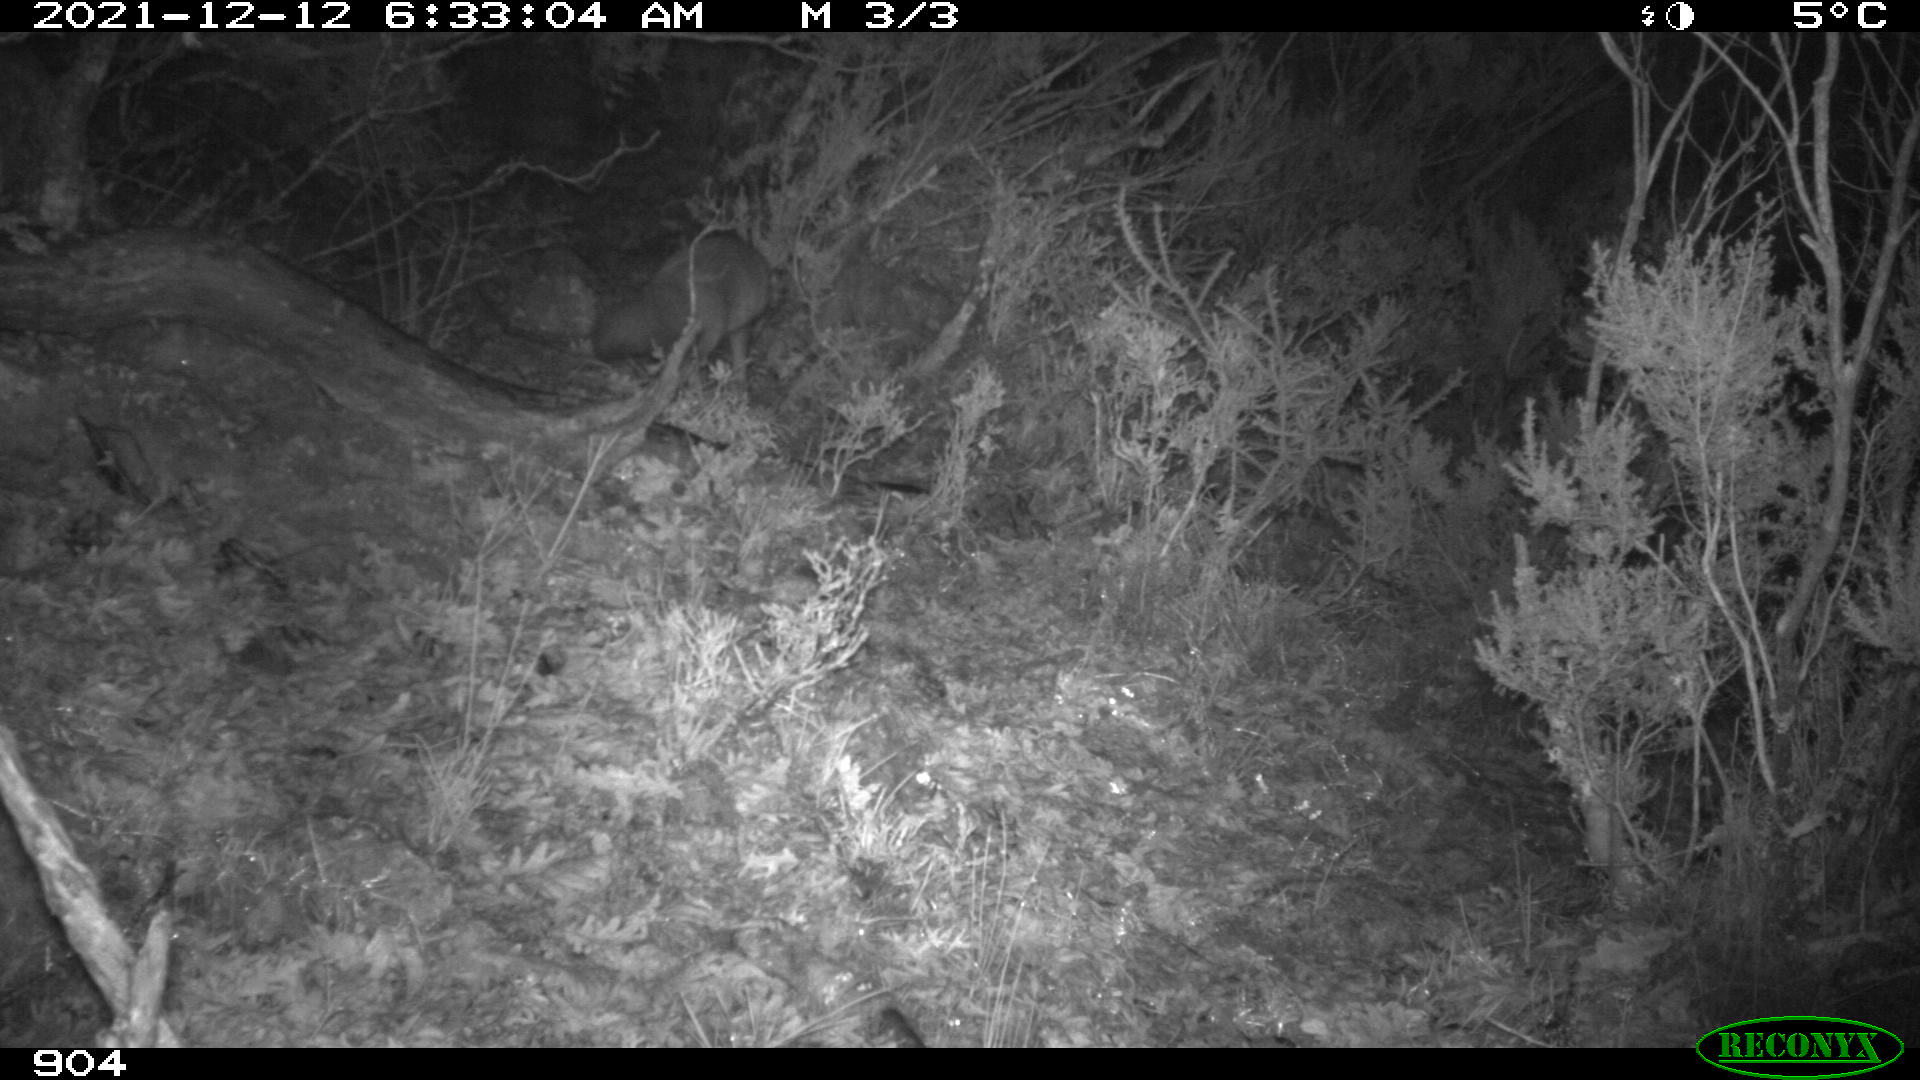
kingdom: Animalia
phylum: Chordata
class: Mammalia
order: Carnivora
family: Canidae
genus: Vulpes
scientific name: Vulpes vulpes
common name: Red fox
